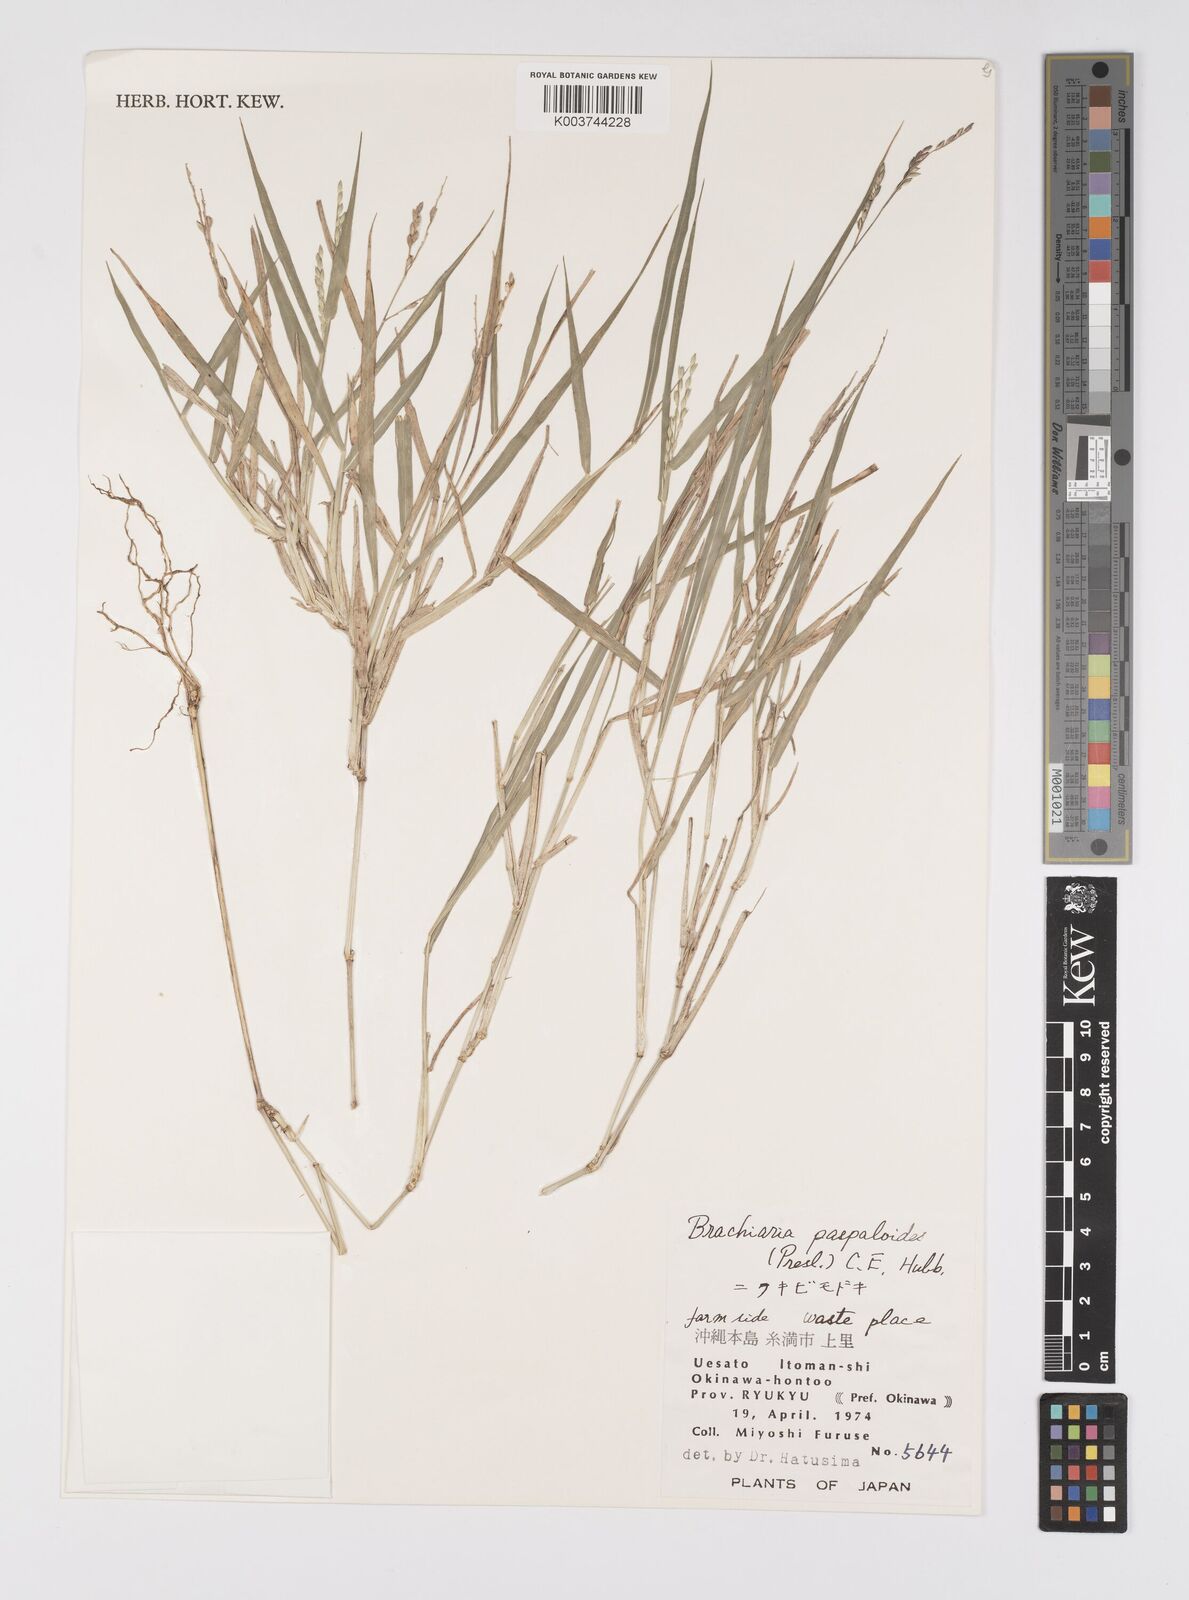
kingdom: Plantae
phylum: Tracheophyta
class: Liliopsida
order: Poales
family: Poaceae
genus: Urochloa
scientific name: Urochloa glumaris
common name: Thurston grass
